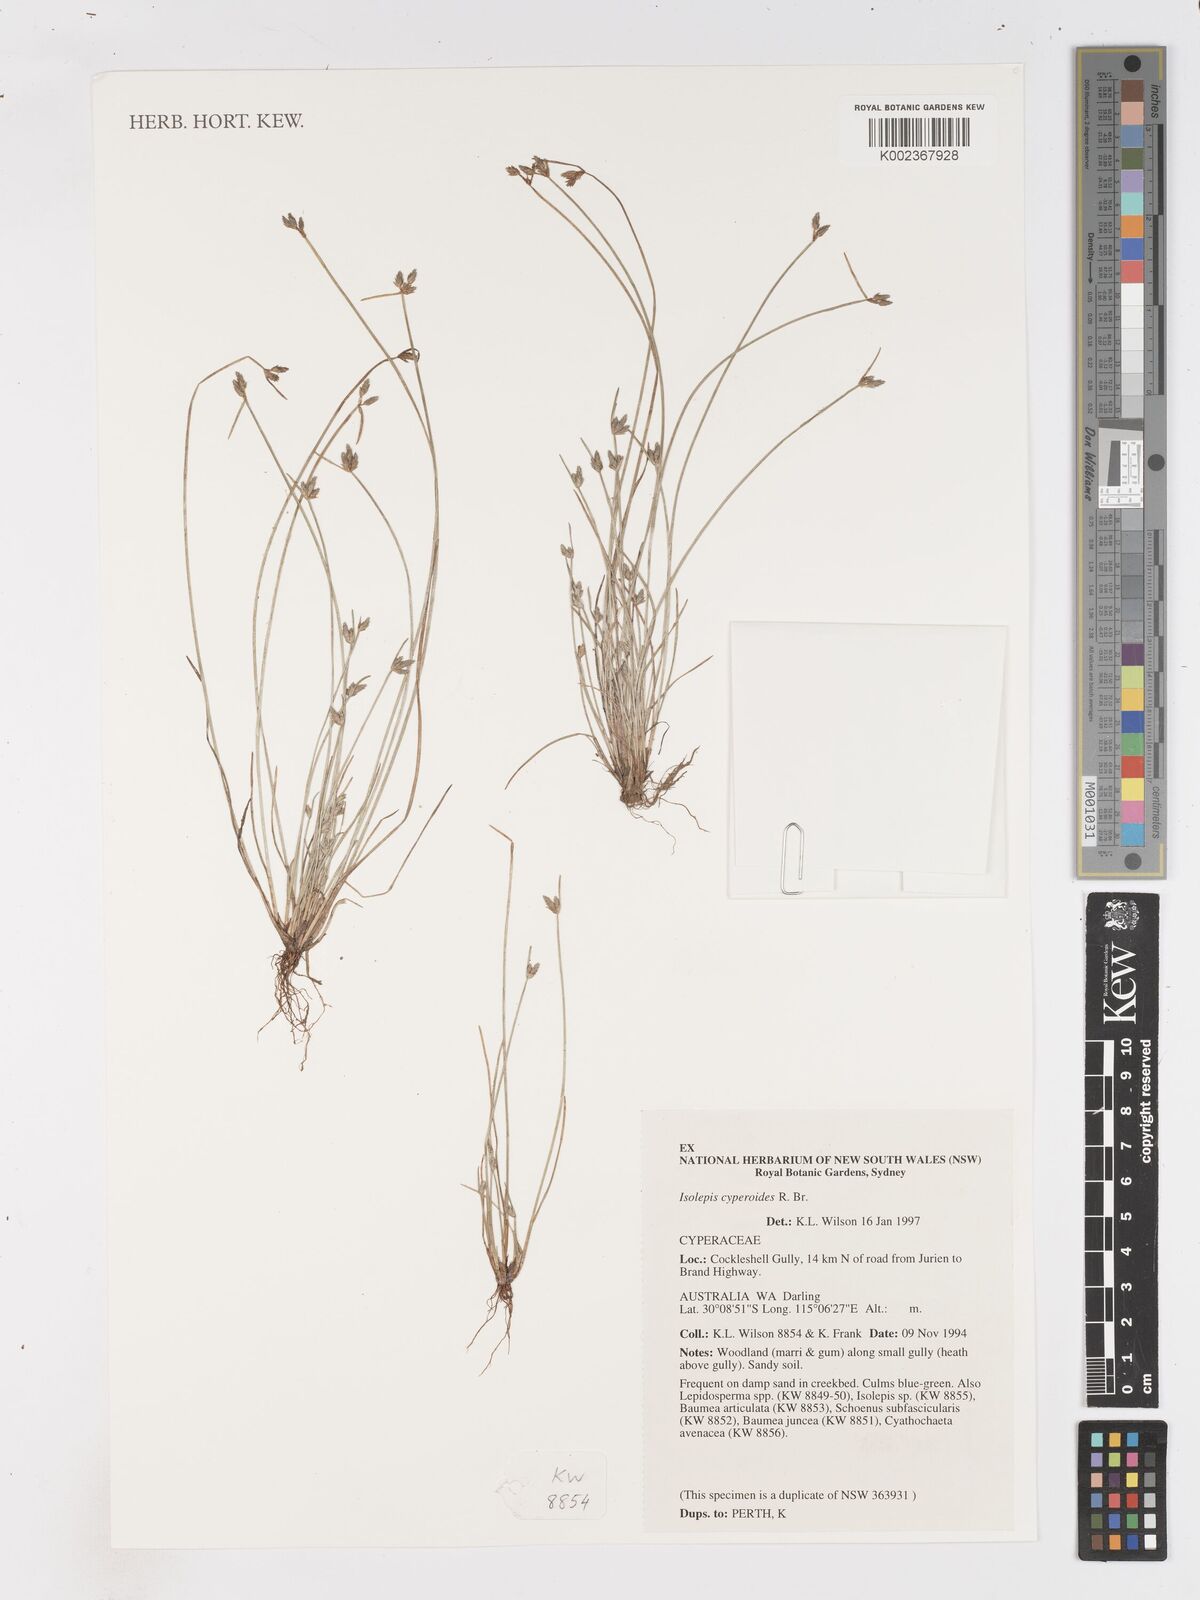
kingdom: Plantae
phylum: Tracheophyta
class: Liliopsida
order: Poales
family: Cyperaceae
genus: Isolepis
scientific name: Isolepis cyperoides
